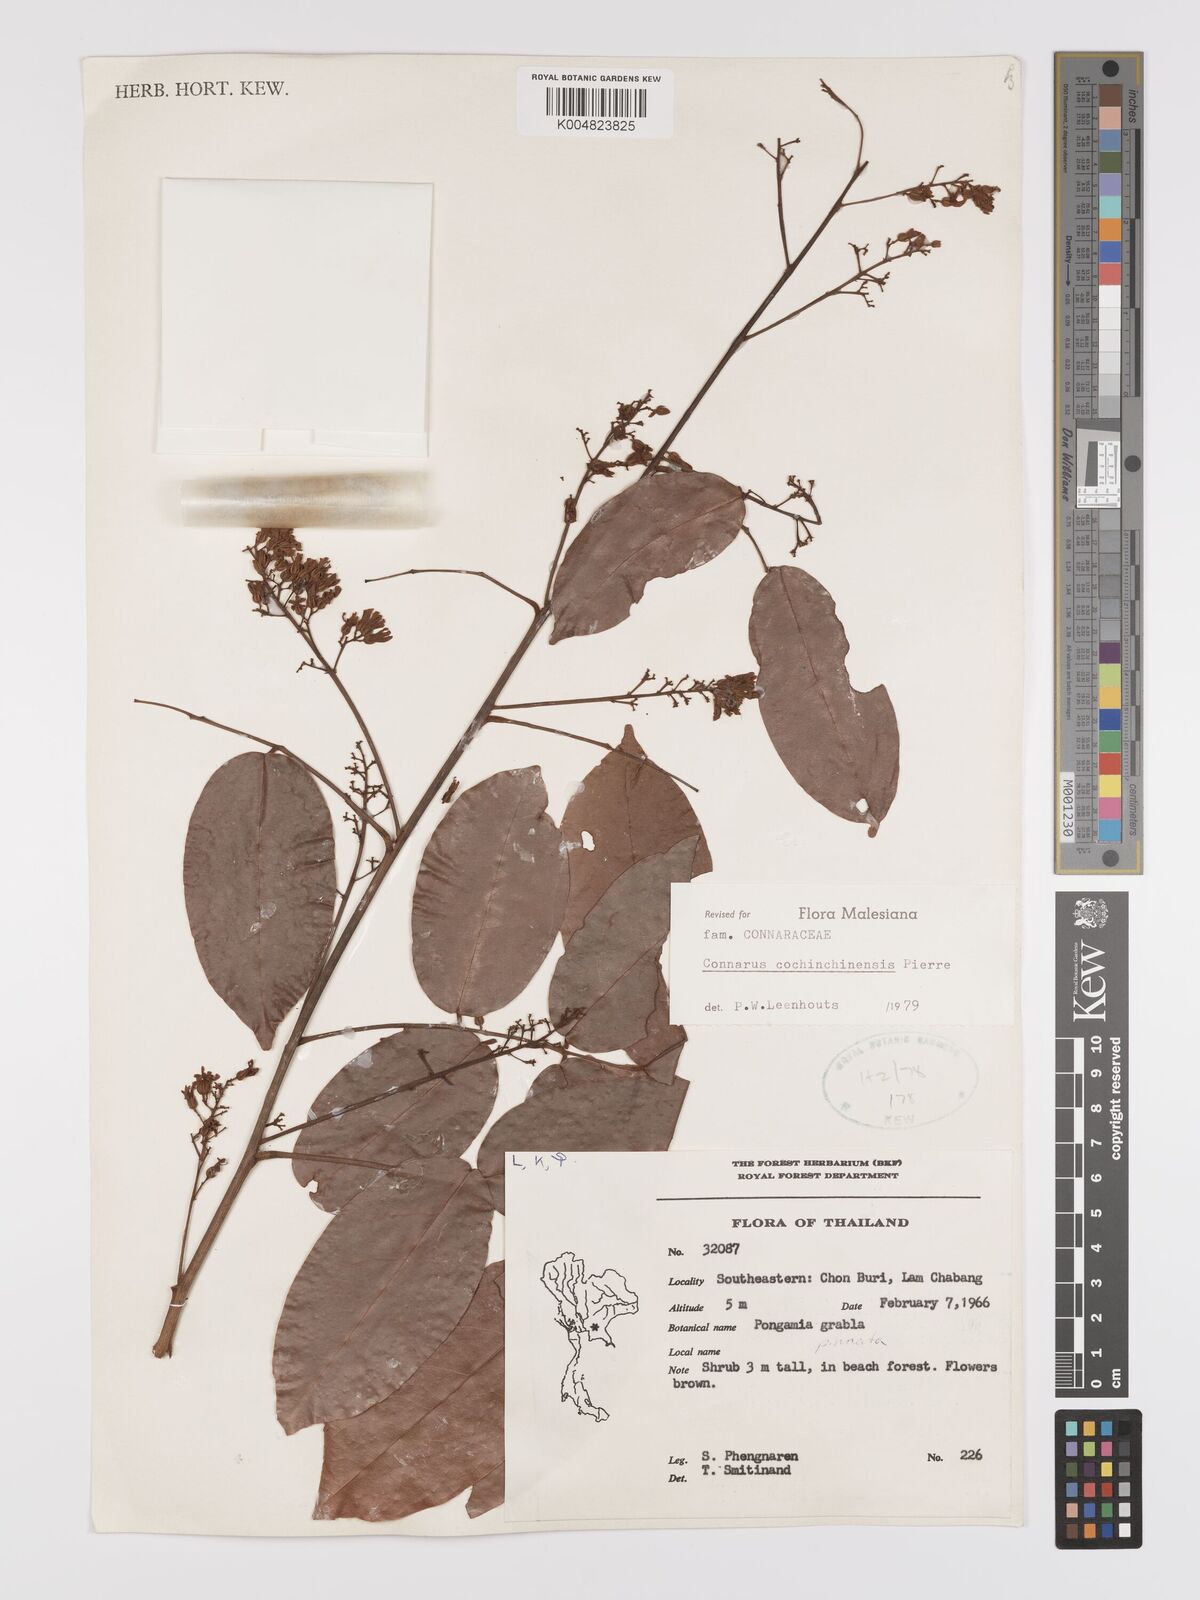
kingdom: Plantae
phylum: Tracheophyta
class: Magnoliopsida
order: Oxalidales
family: Connaraceae
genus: Connarus
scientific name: Connarus cochinchinensis
